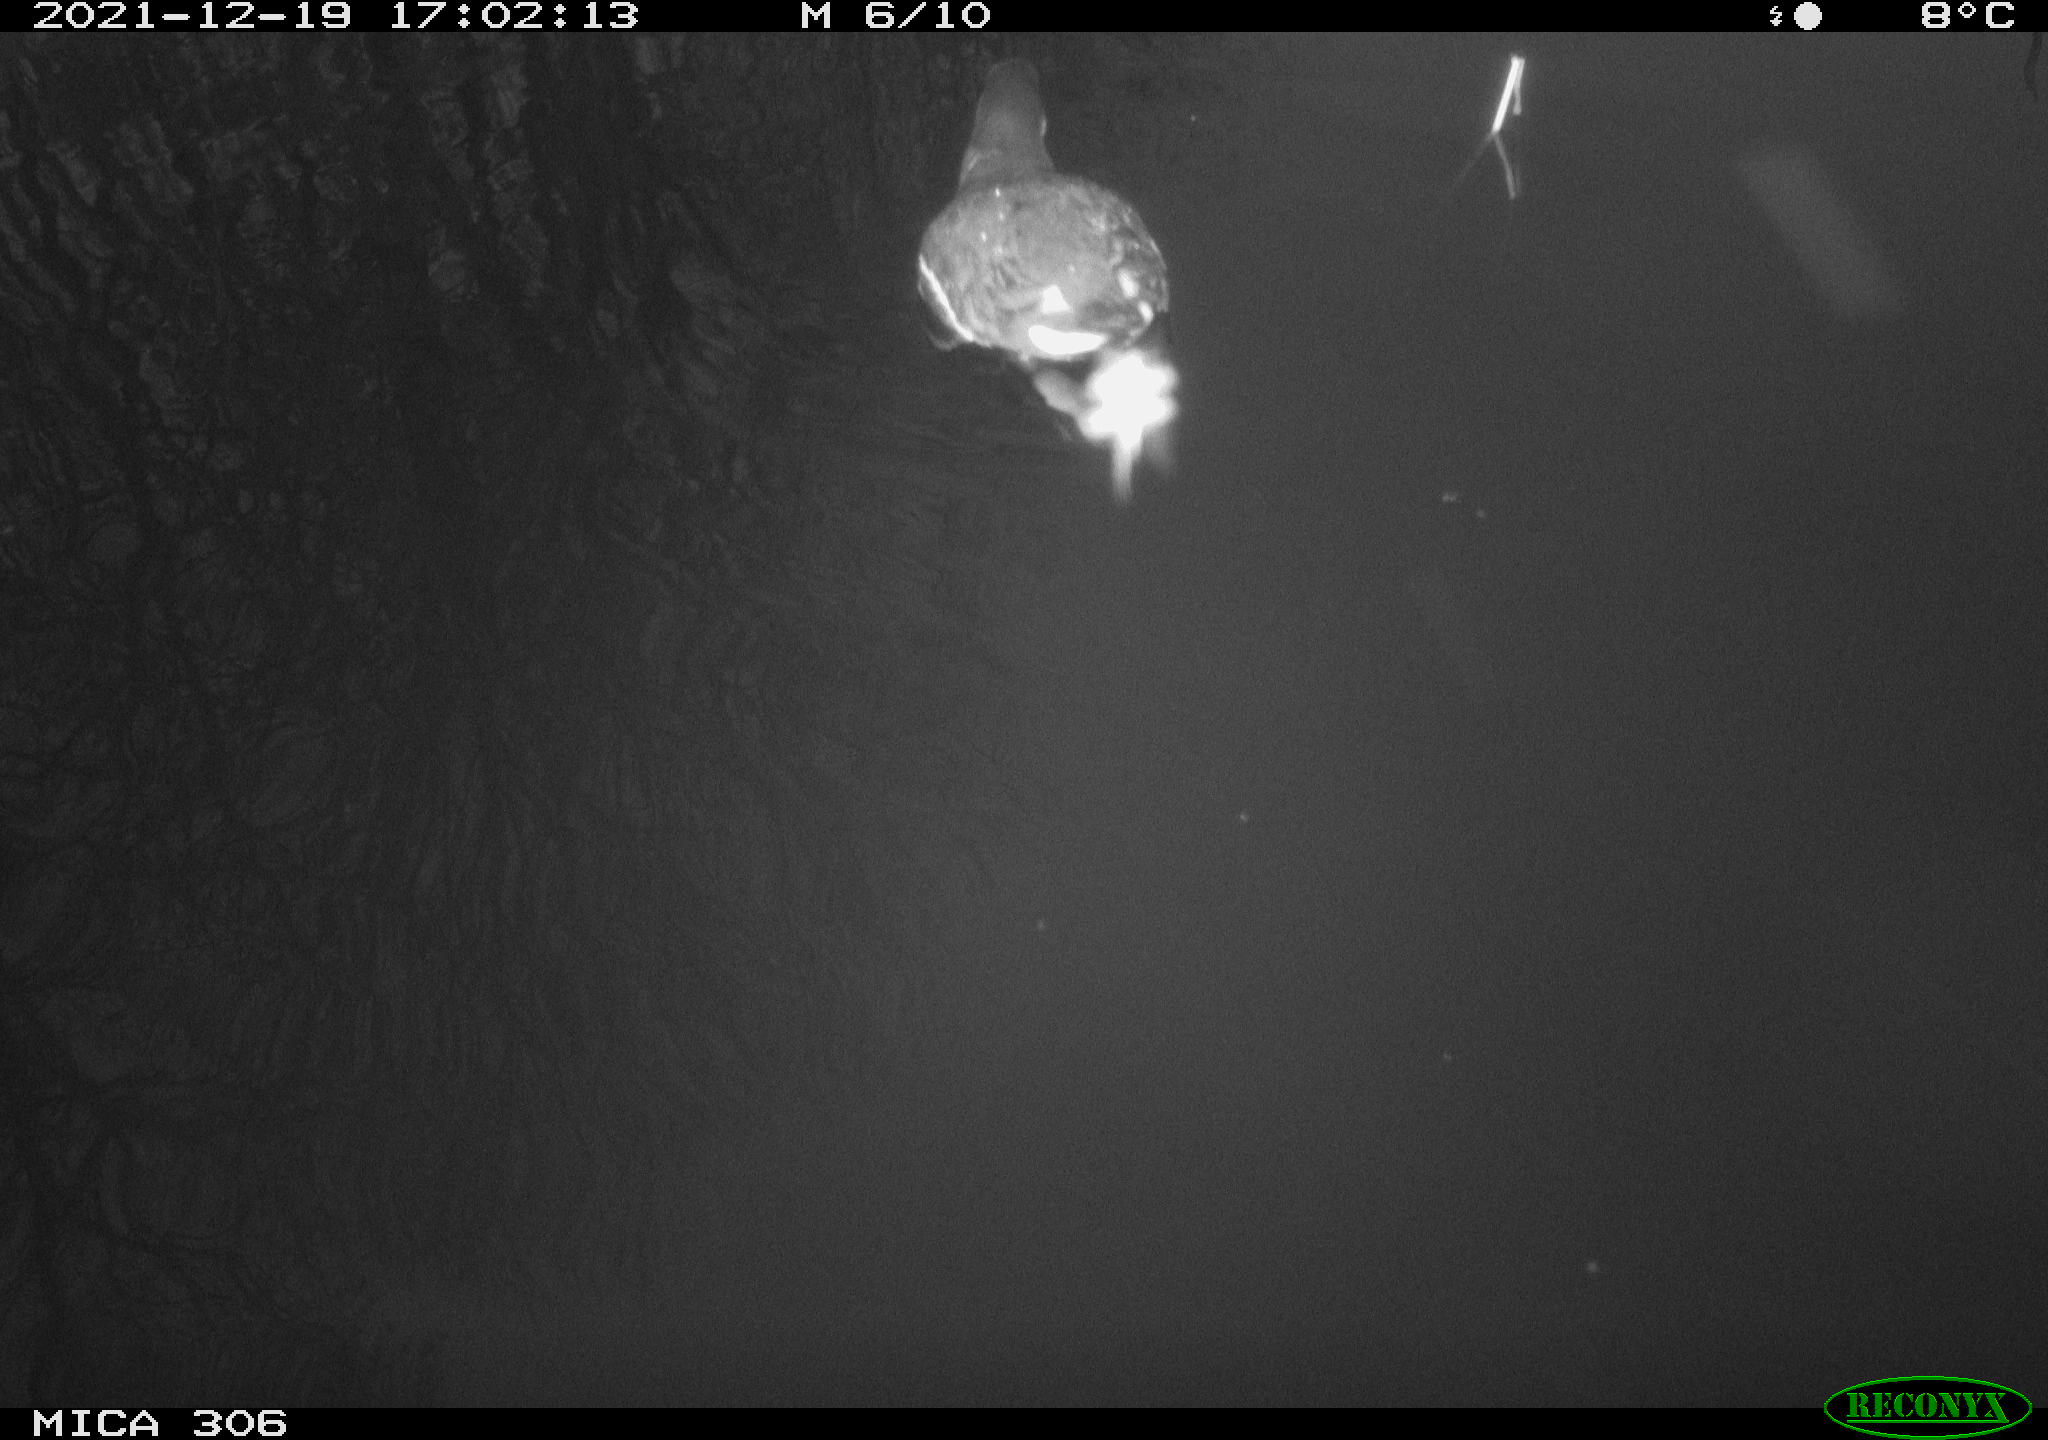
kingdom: Animalia
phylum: Chordata
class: Aves
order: Gruiformes
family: Rallidae
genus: Gallinula
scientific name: Gallinula chloropus
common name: Common moorhen
